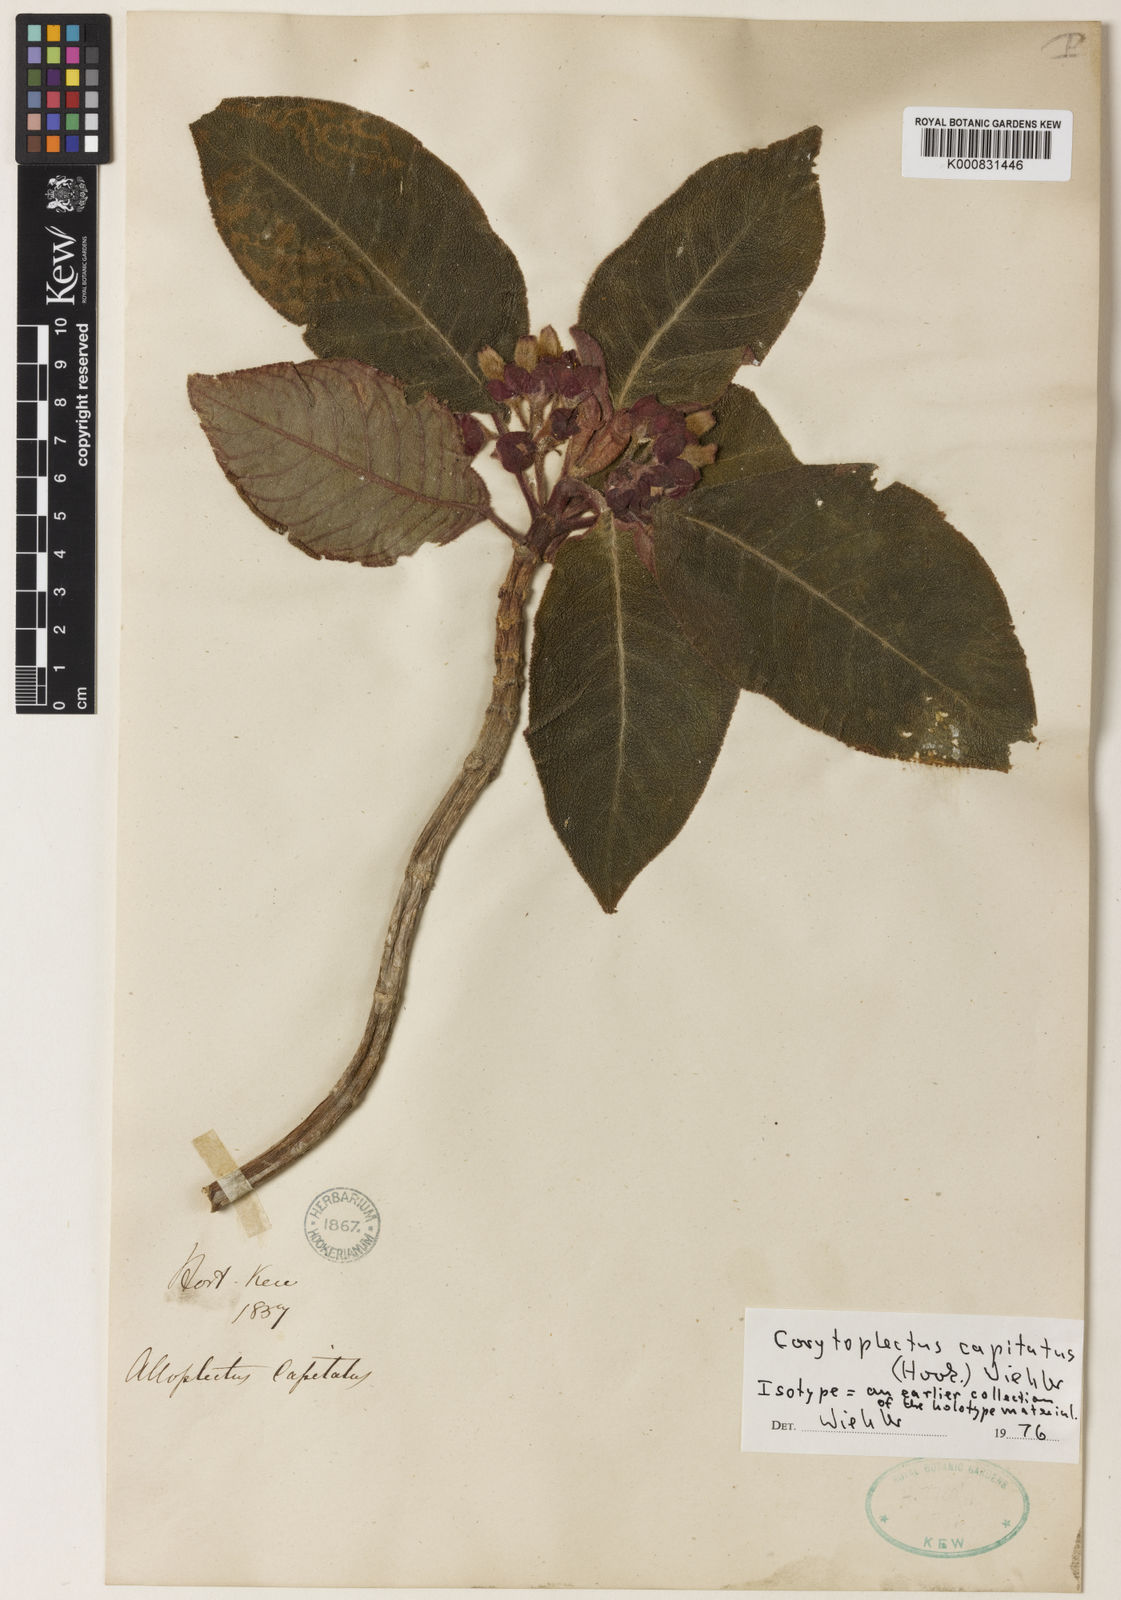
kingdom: Plantae
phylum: Tracheophyta
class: Magnoliopsida
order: Lamiales
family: Gesneriaceae
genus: Corytoplectus
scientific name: Corytoplectus capitatus
